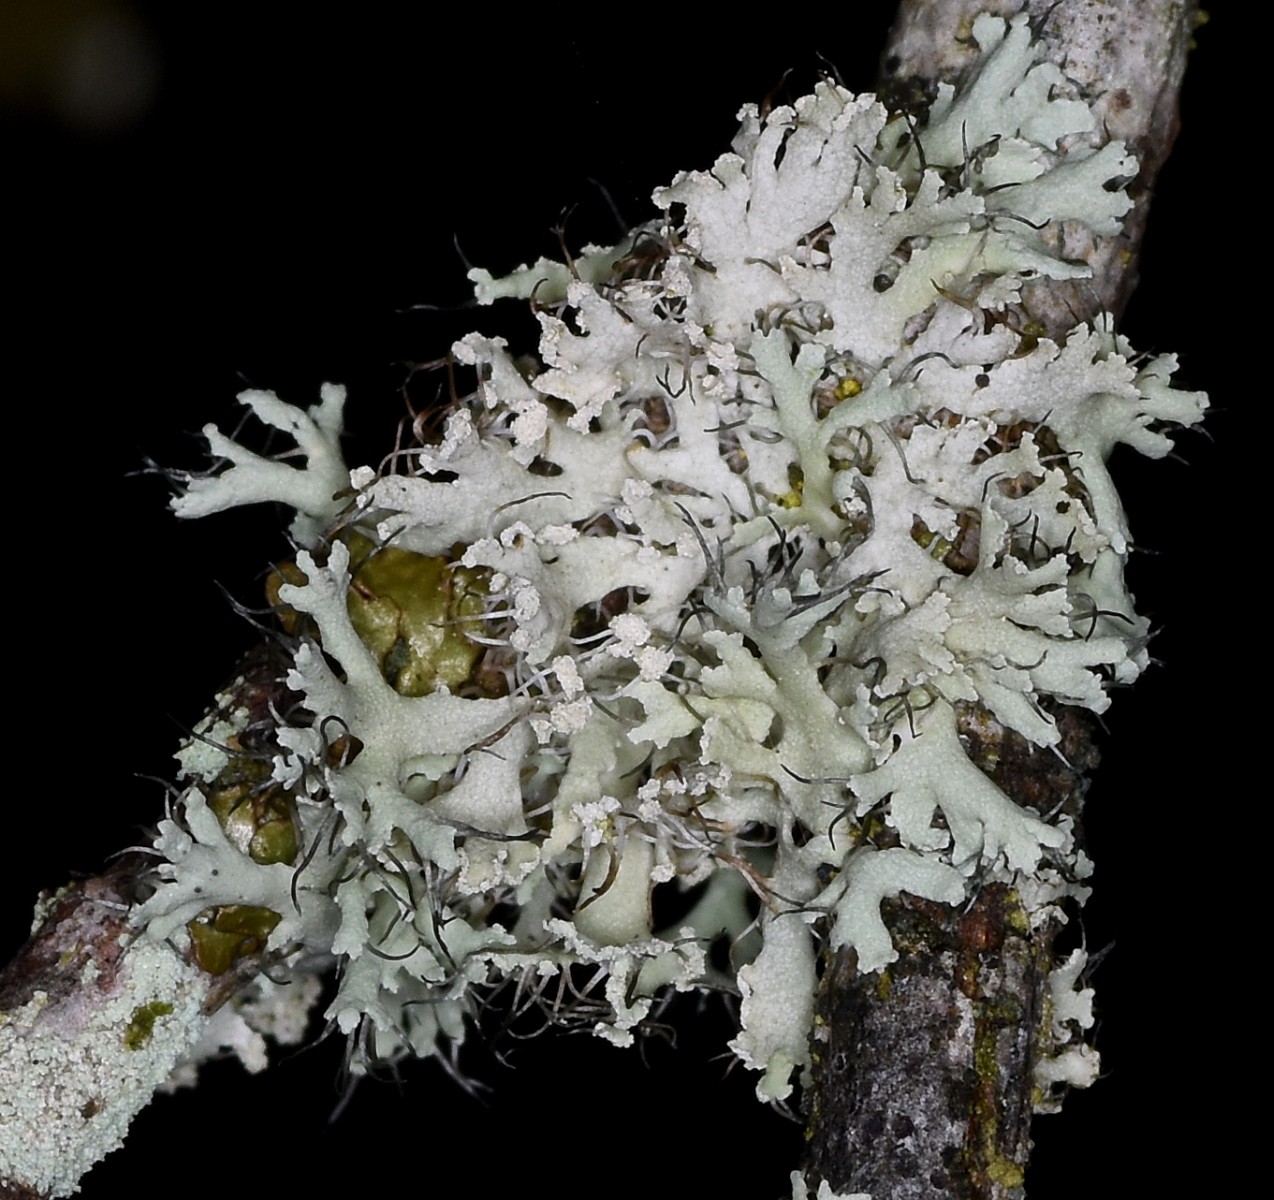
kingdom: Fungi
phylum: Ascomycota
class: Lecanoromycetes
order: Caliciales
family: Physciaceae
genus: Physcia
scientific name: Physcia tenella
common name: spæd rosetlav
